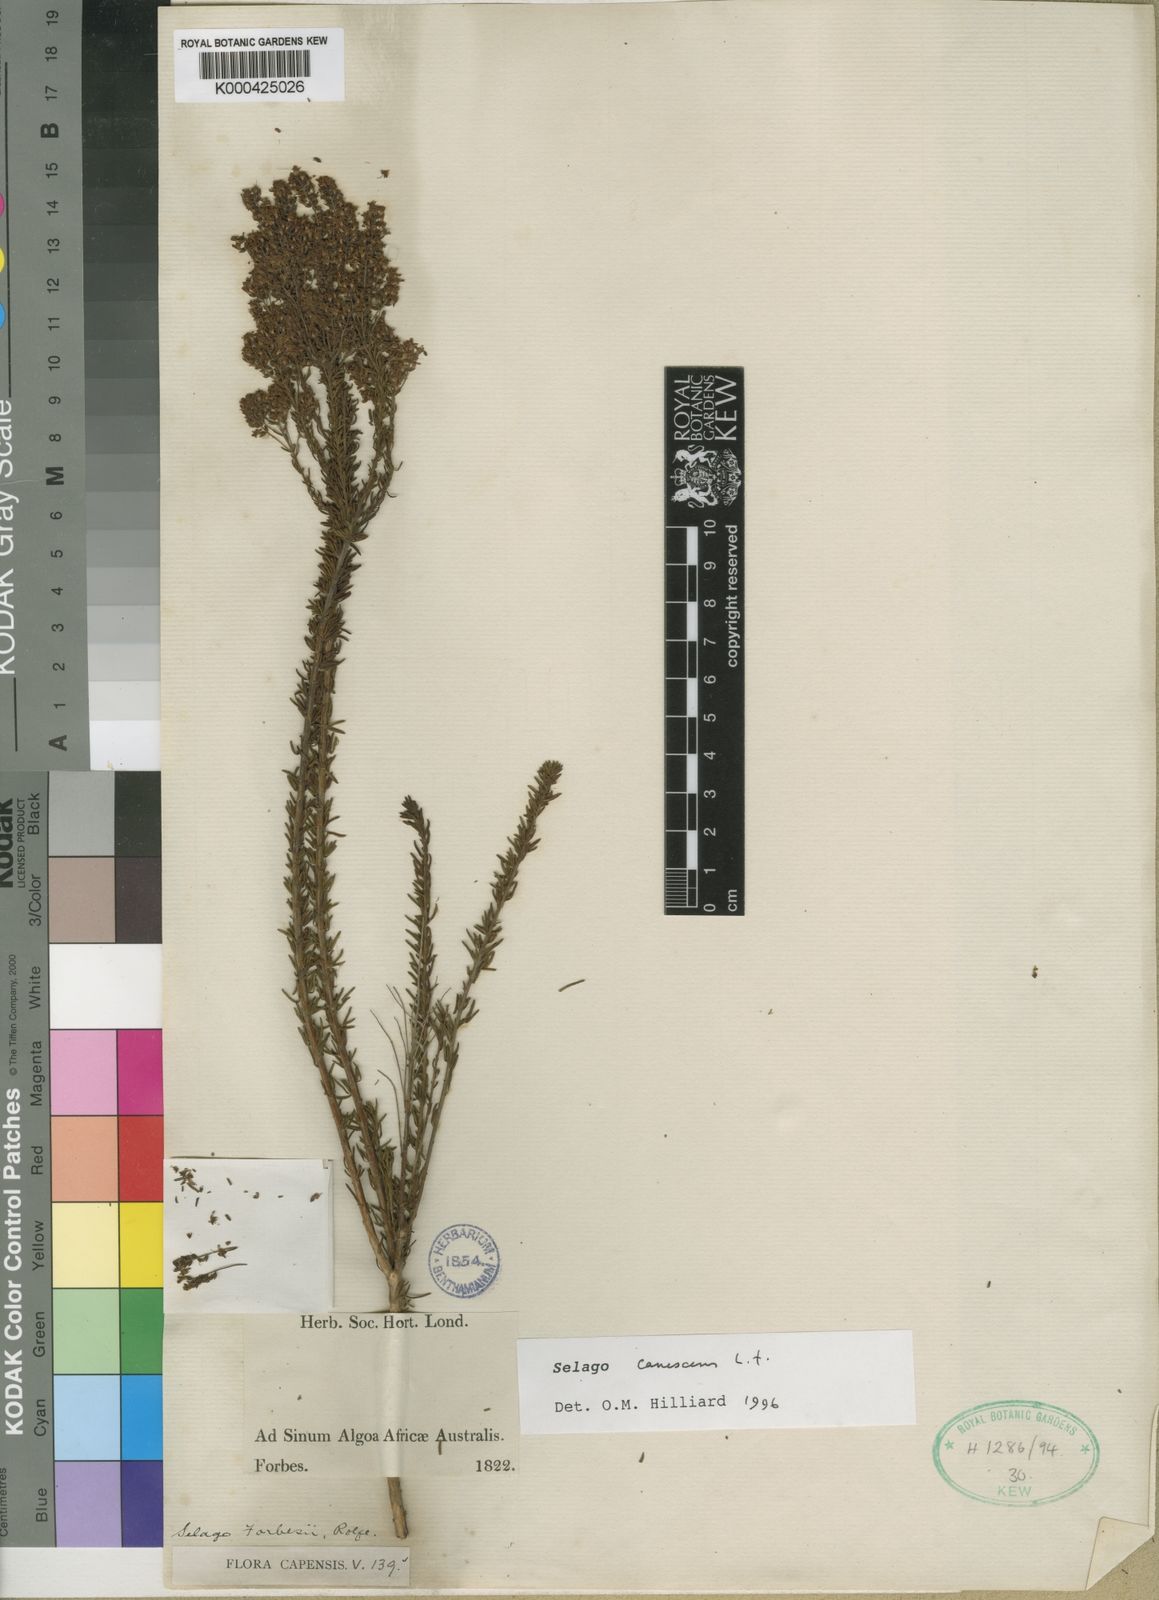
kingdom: Plantae
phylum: Tracheophyta
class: Magnoliopsida
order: Lamiales
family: Scrophulariaceae
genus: Selago
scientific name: Selago canescens
